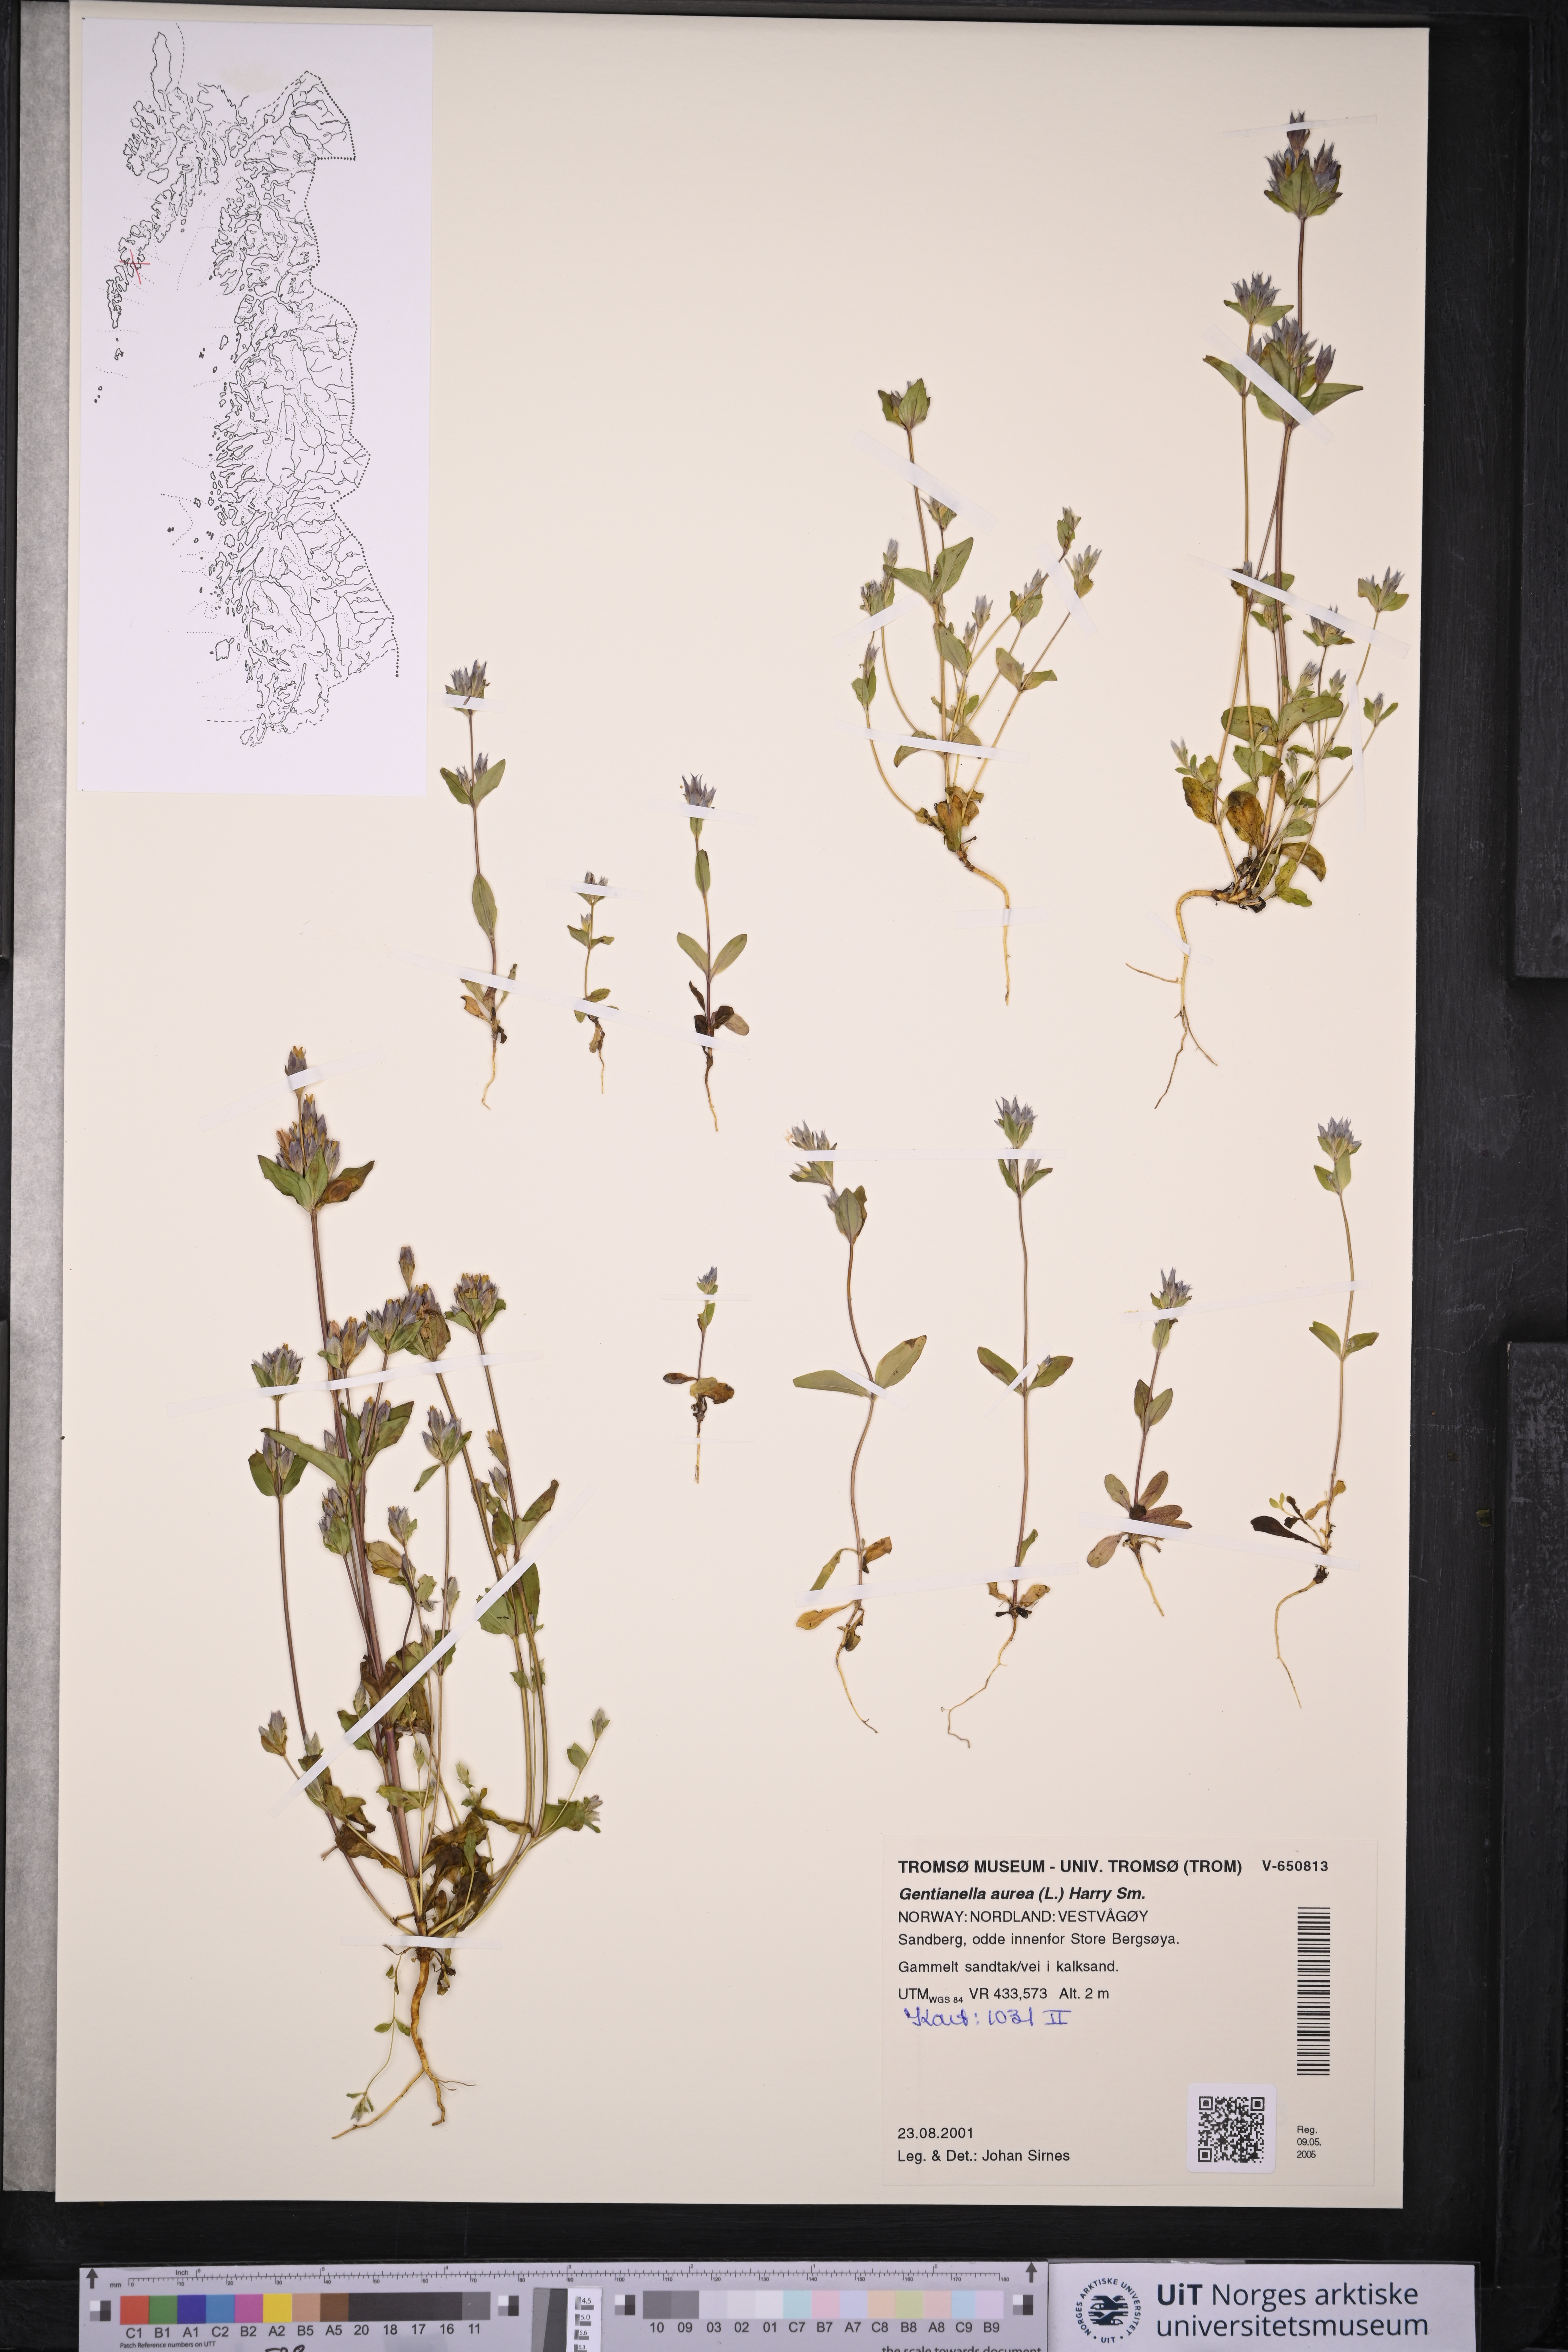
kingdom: Plantae
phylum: Tracheophyta
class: Magnoliopsida
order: Gentianales
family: Gentianaceae
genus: Gentianella
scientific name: Gentianella aurea
